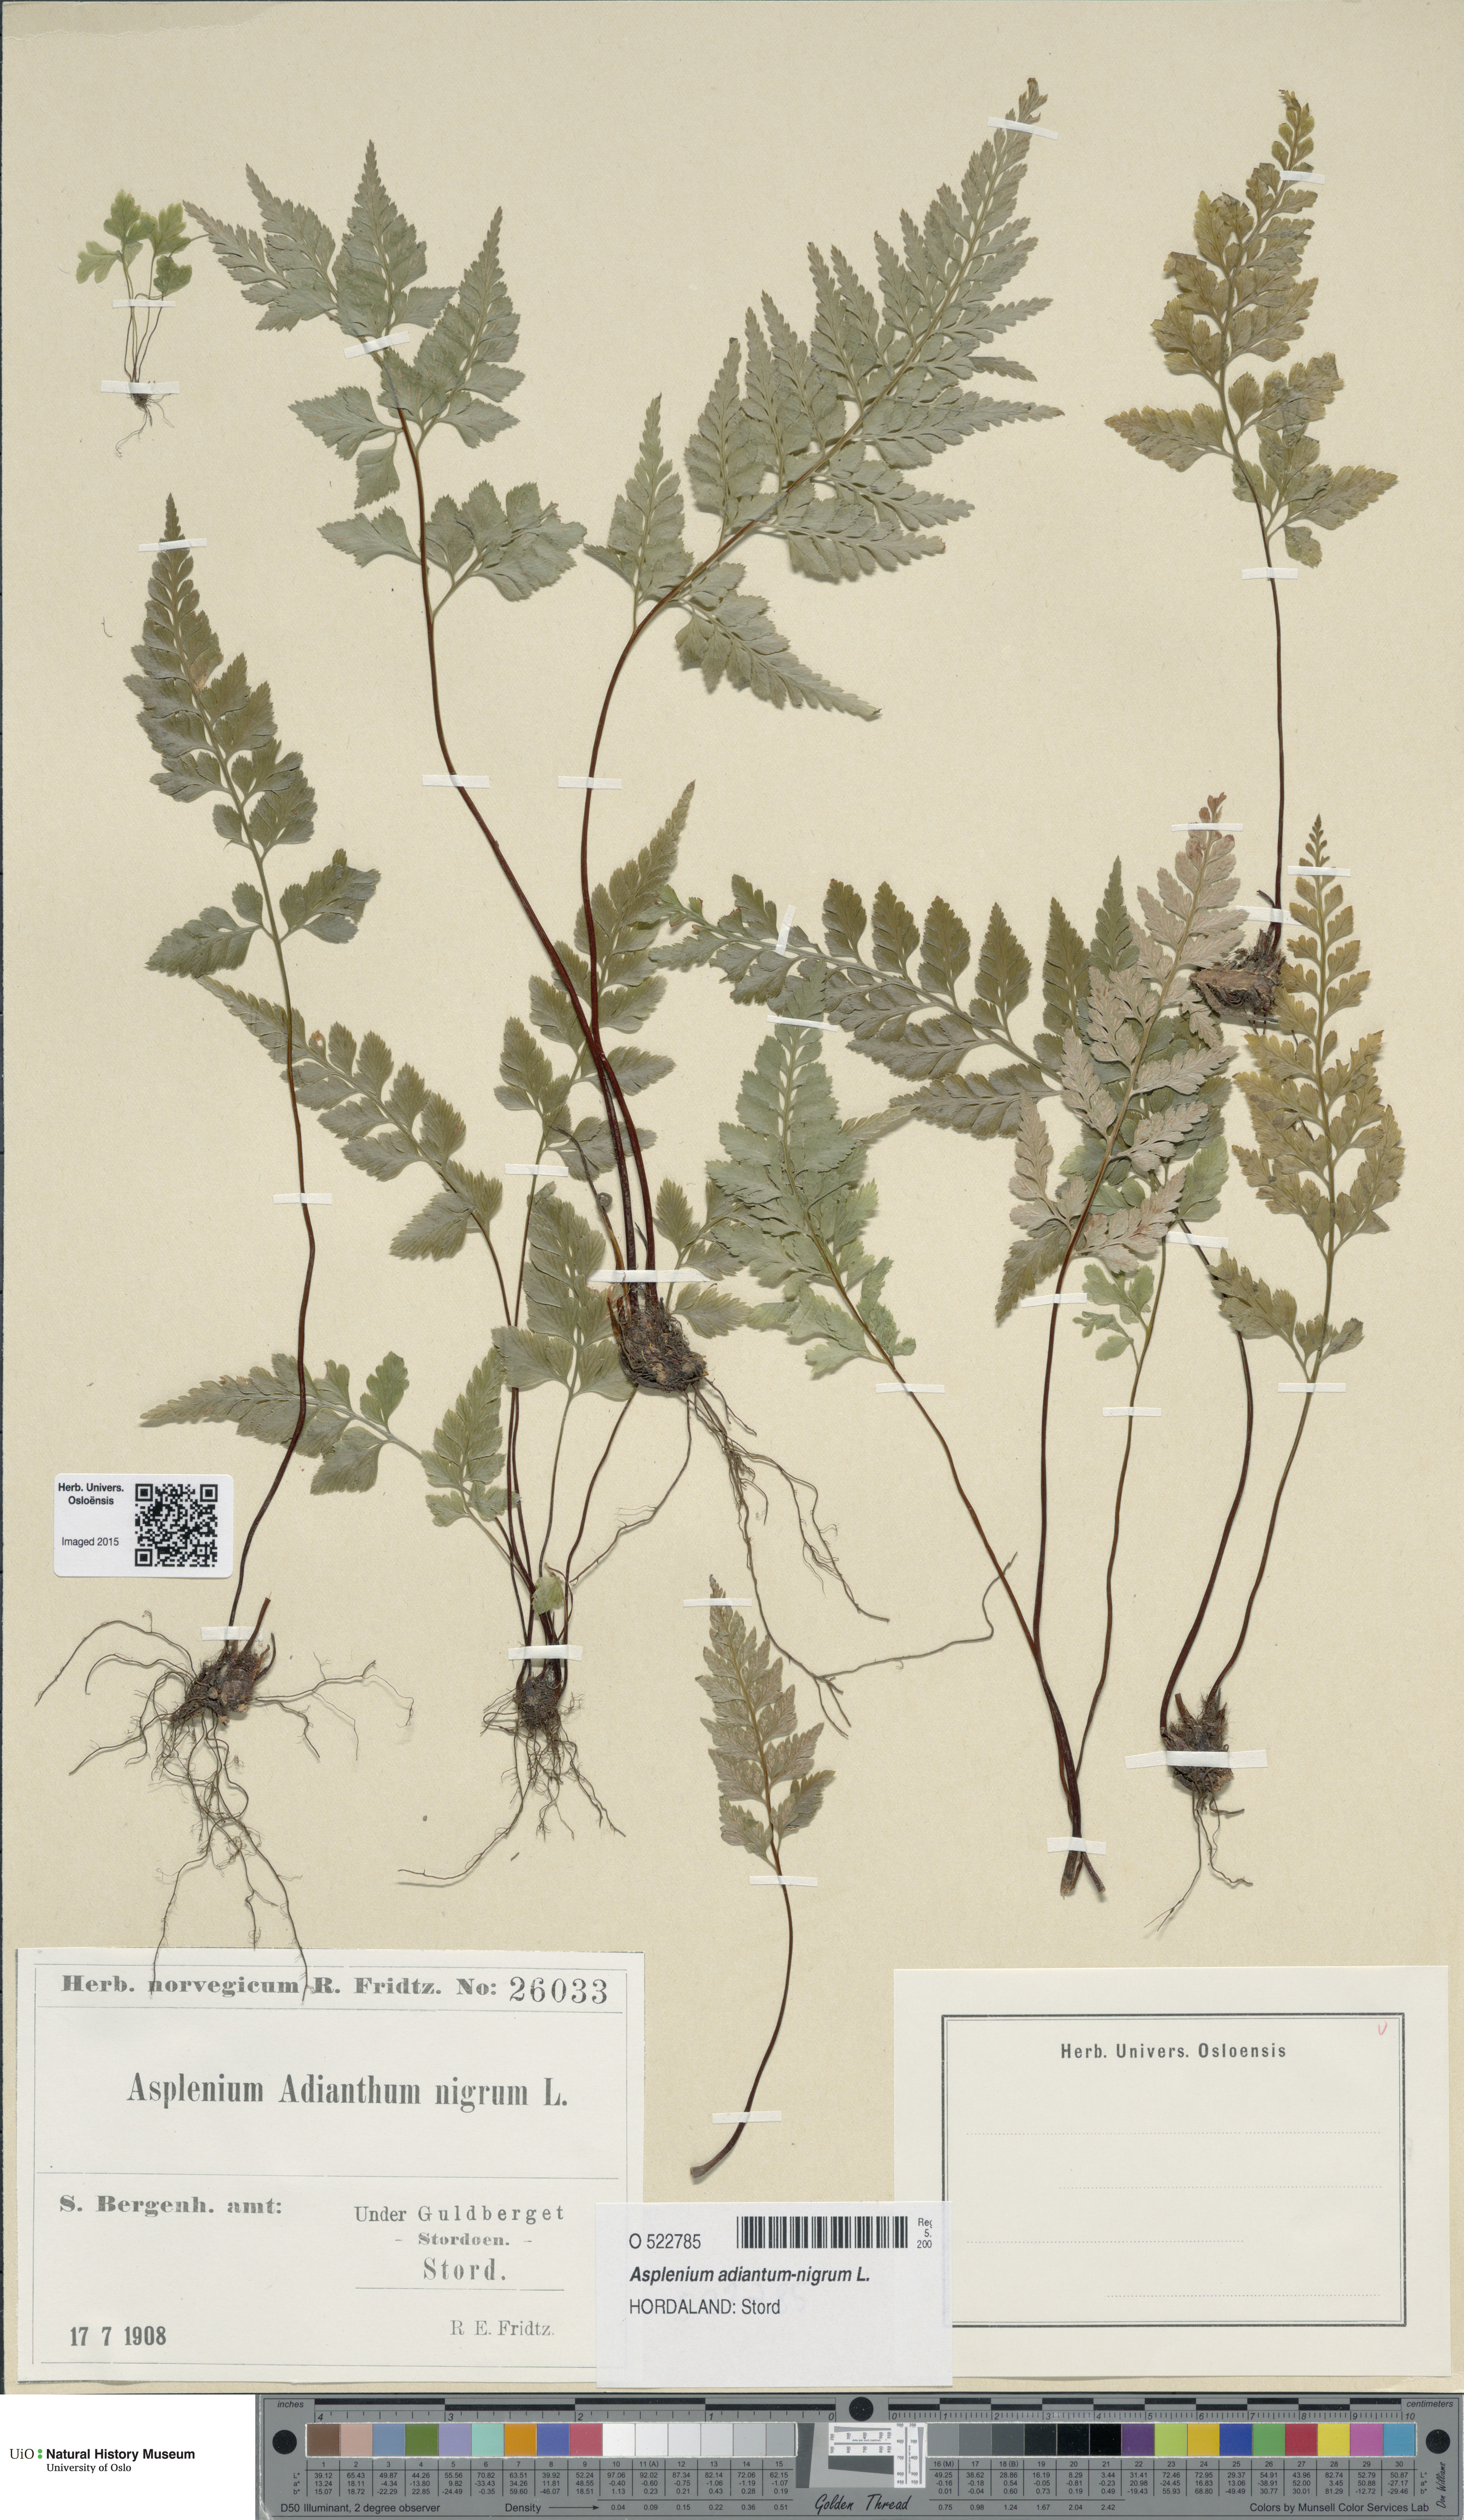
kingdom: Plantae
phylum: Tracheophyta
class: Polypodiopsida
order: Polypodiales
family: Aspleniaceae
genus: Asplenium
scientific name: Asplenium adiantum-nigrum
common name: Black spleenwort
